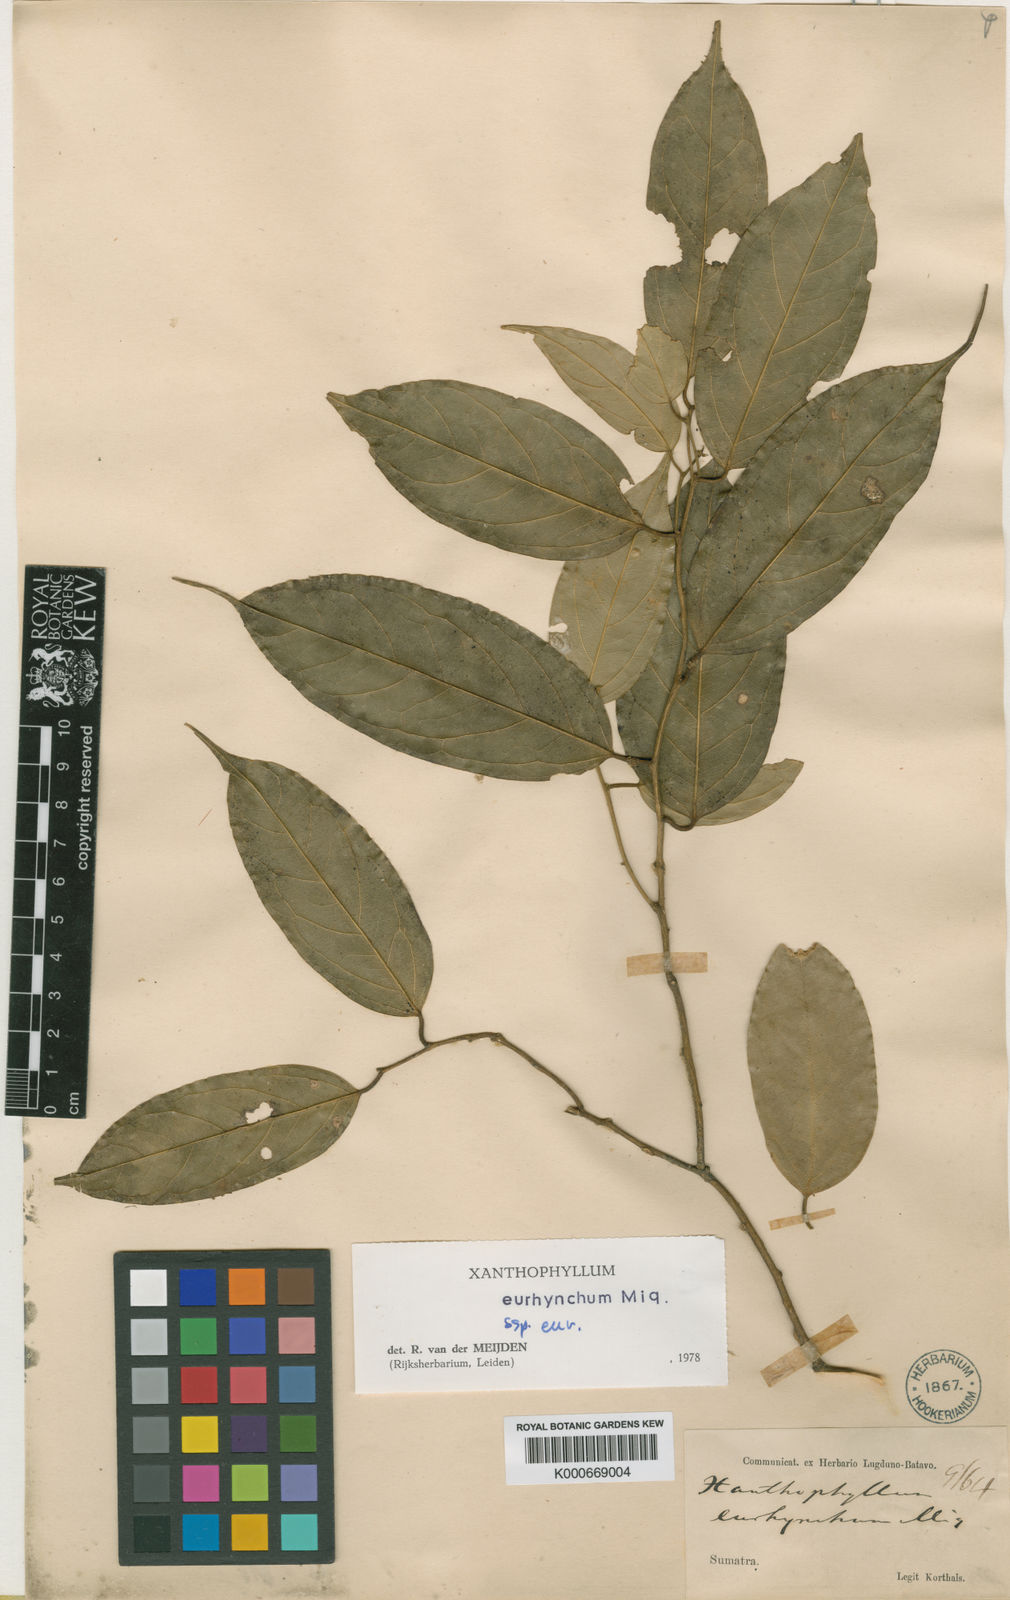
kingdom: Plantae
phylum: Tracheophyta
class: Magnoliopsida
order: Fabales
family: Polygalaceae
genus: Xanthophyllum
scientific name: Xanthophyllum eurhynchum
